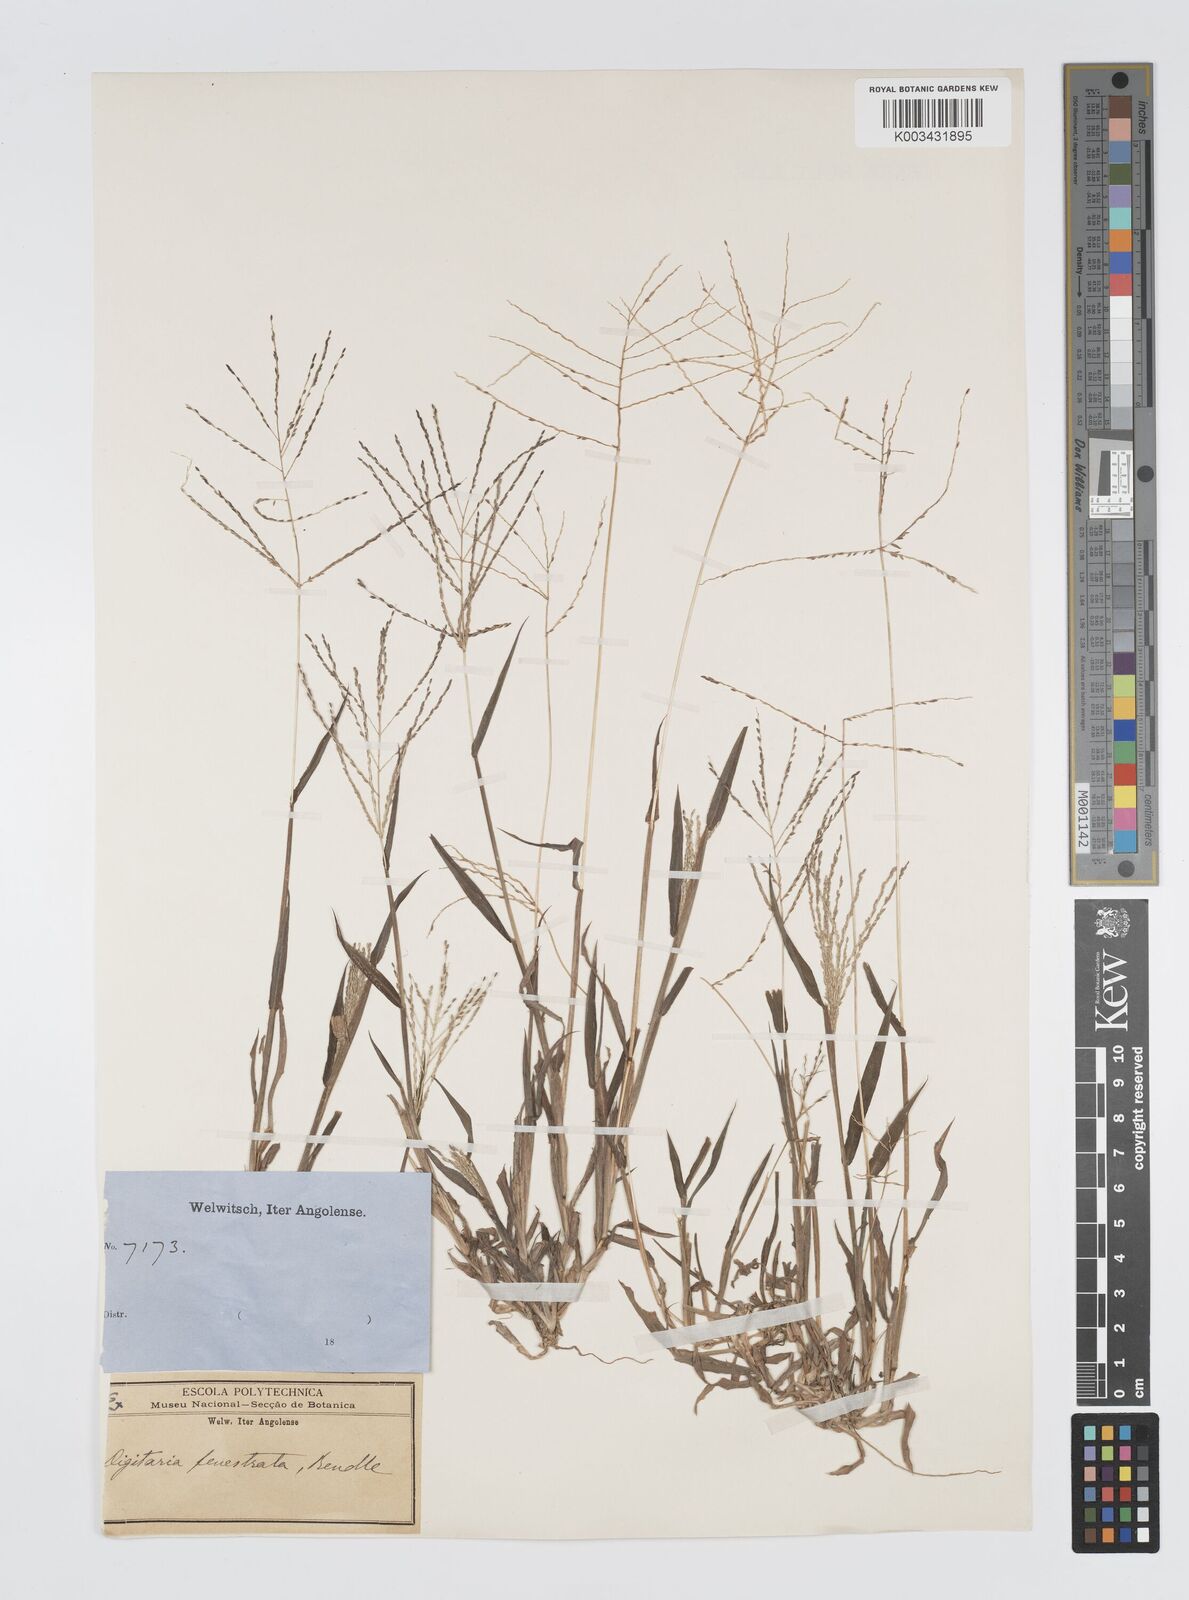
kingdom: Plantae
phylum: Tracheophyta
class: Liliopsida
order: Poales
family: Poaceae
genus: Digitaria
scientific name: Digitaria velutina
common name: Long-plume finger grass
